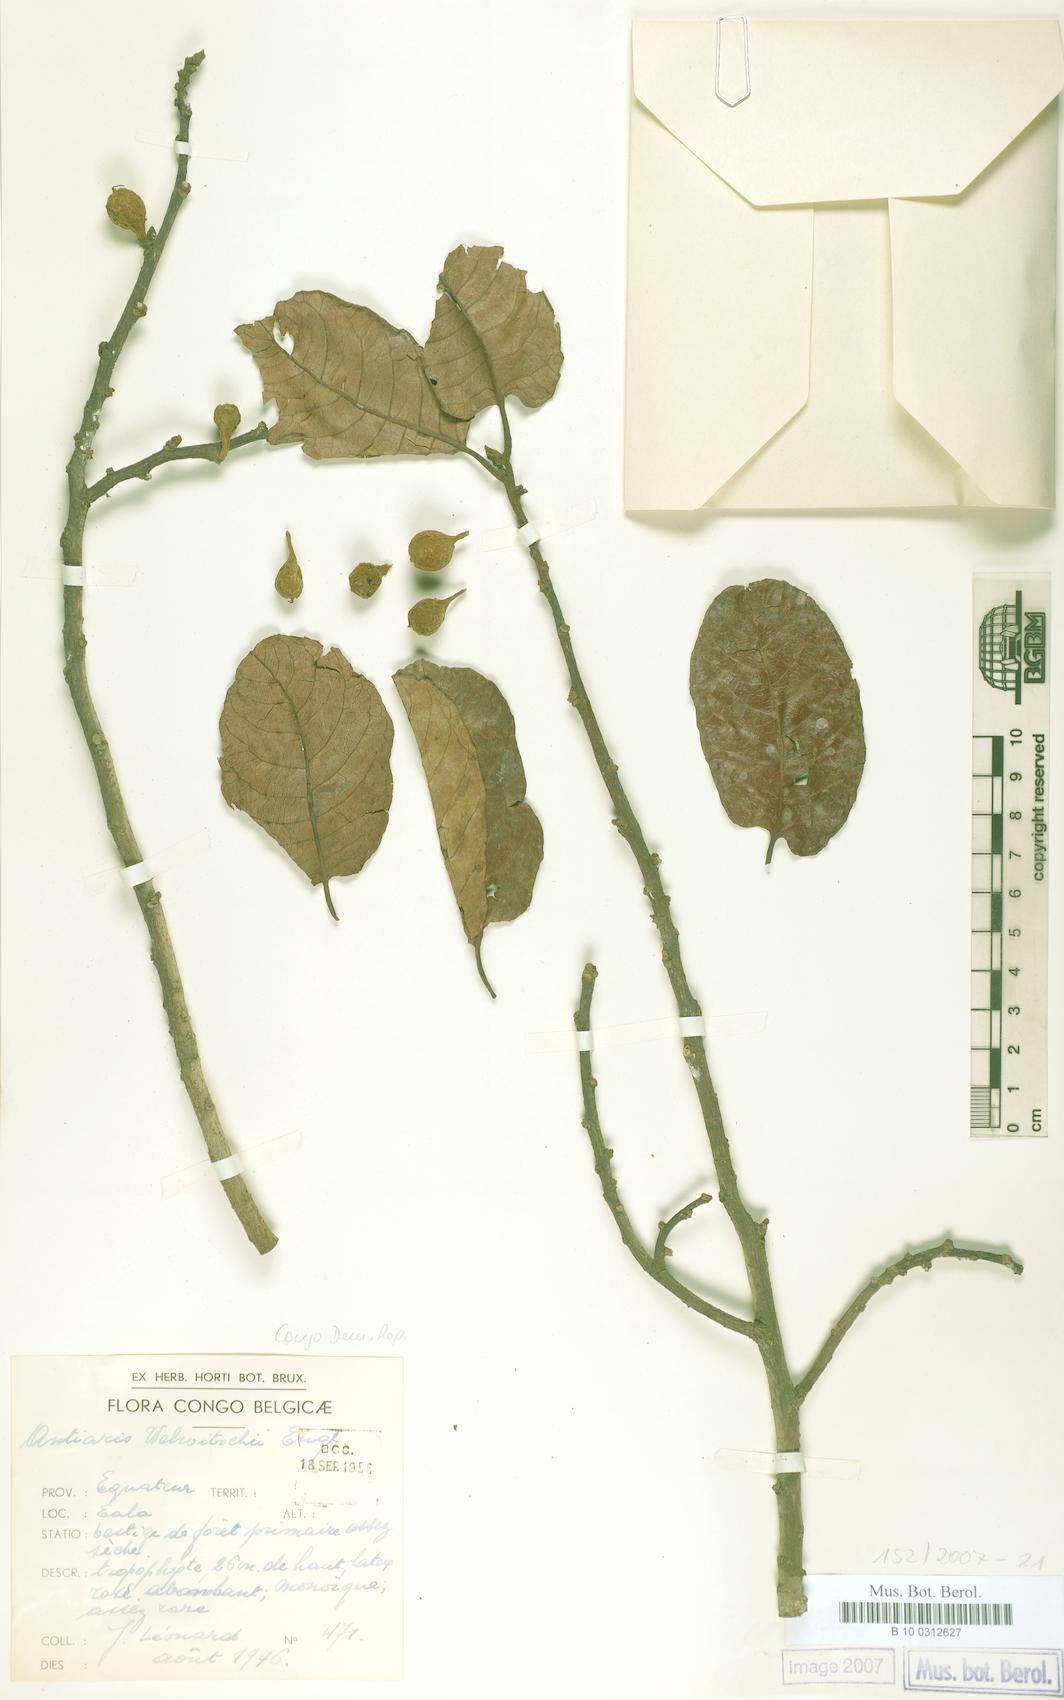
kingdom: Plantae
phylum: Tracheophyta
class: Magnoliopsida
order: Rosales
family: Moraceae
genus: Antiaris
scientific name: Antiaris toxicaria
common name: Sackingtree
